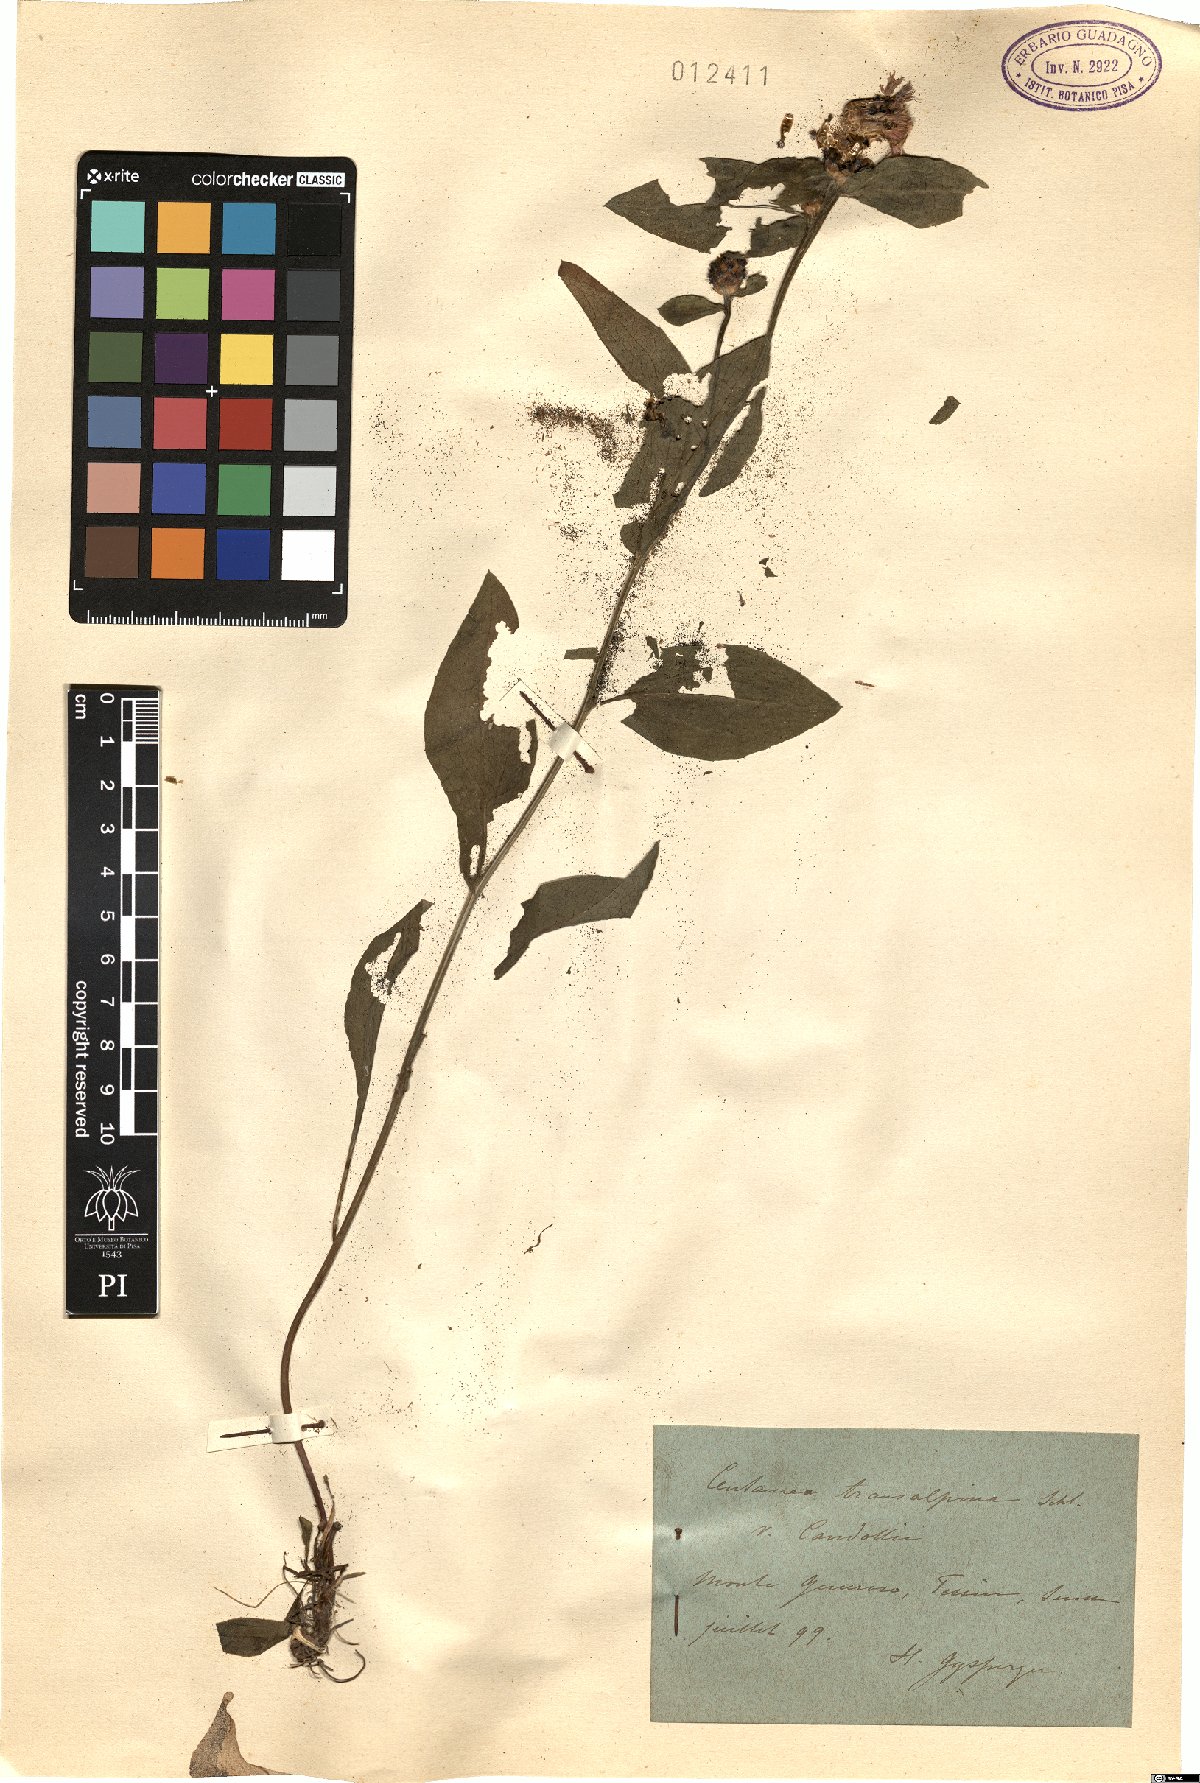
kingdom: Plantae
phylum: Tracheophyta
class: Magnoliopsida
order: Asterales
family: Asteraceae
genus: Centaurea
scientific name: Centaurea nigrescens
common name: Tyrol knapweed
